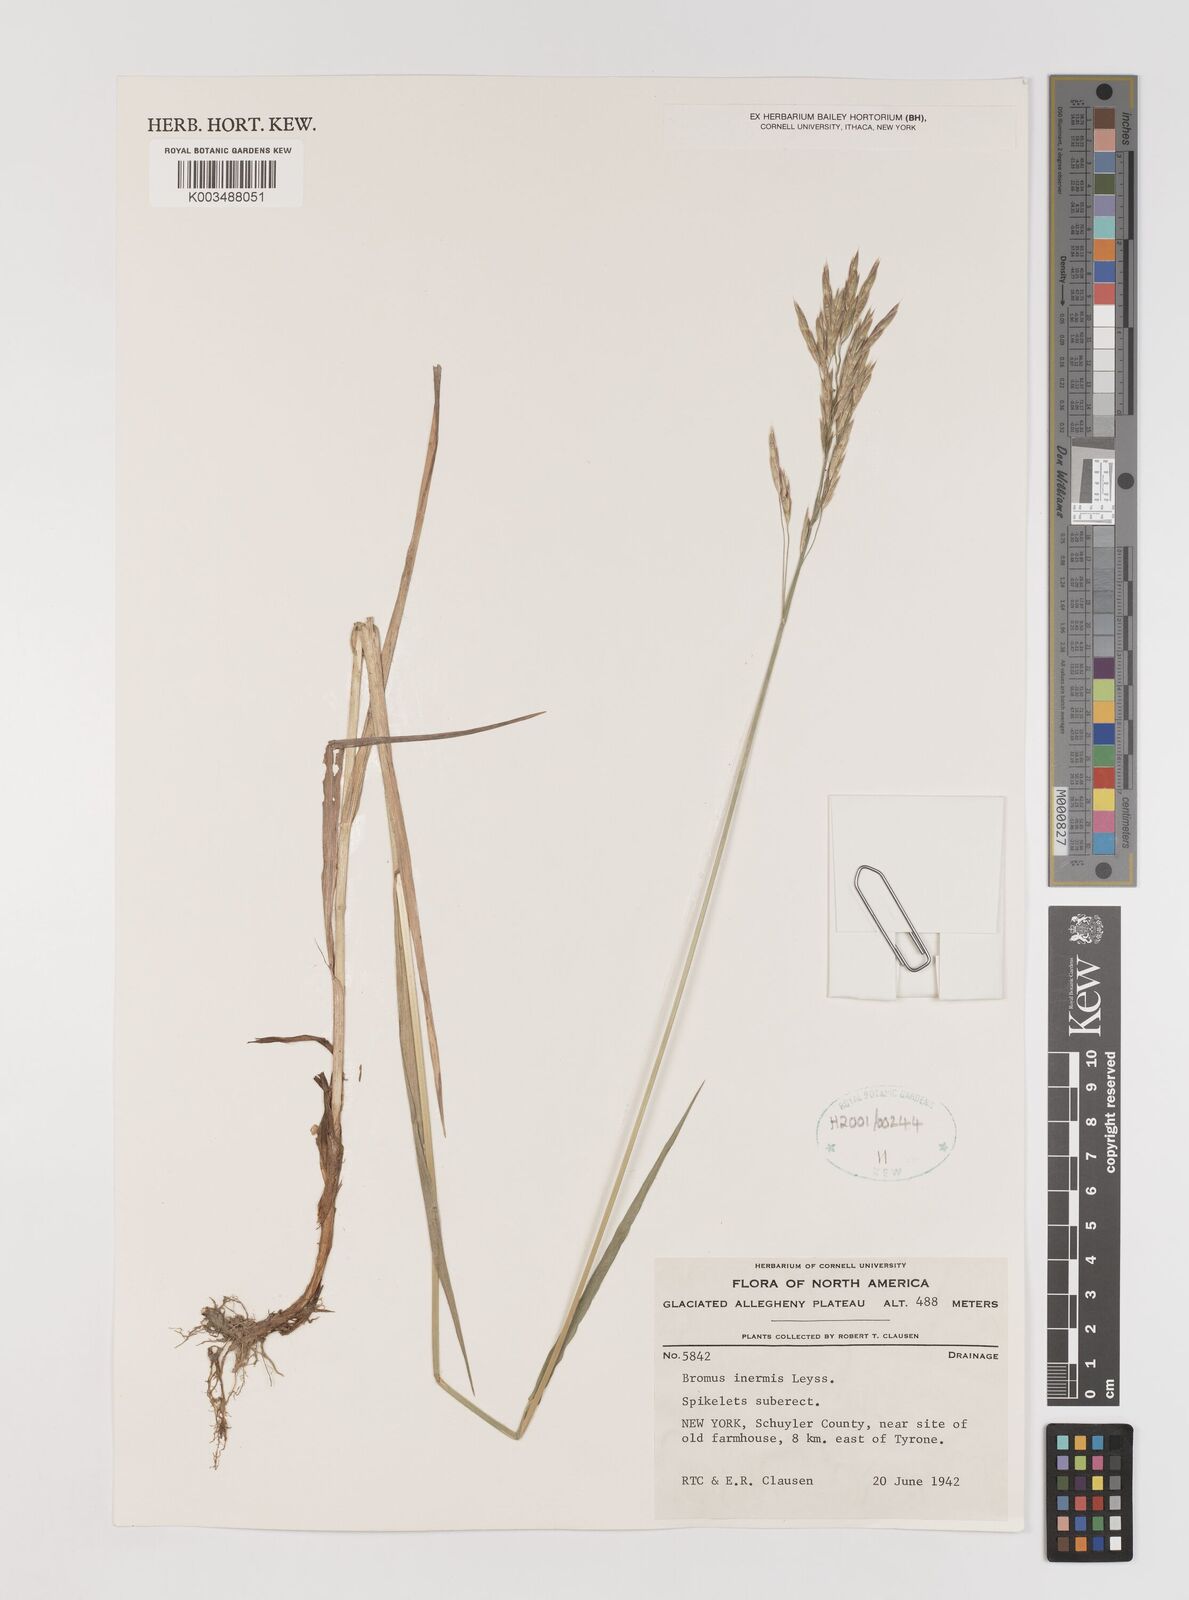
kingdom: Plantae
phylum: Tracheophyta
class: Liliopsida
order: Poales
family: Poaceae
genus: Bromus
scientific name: Bromus inermis
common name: Smooth brome
